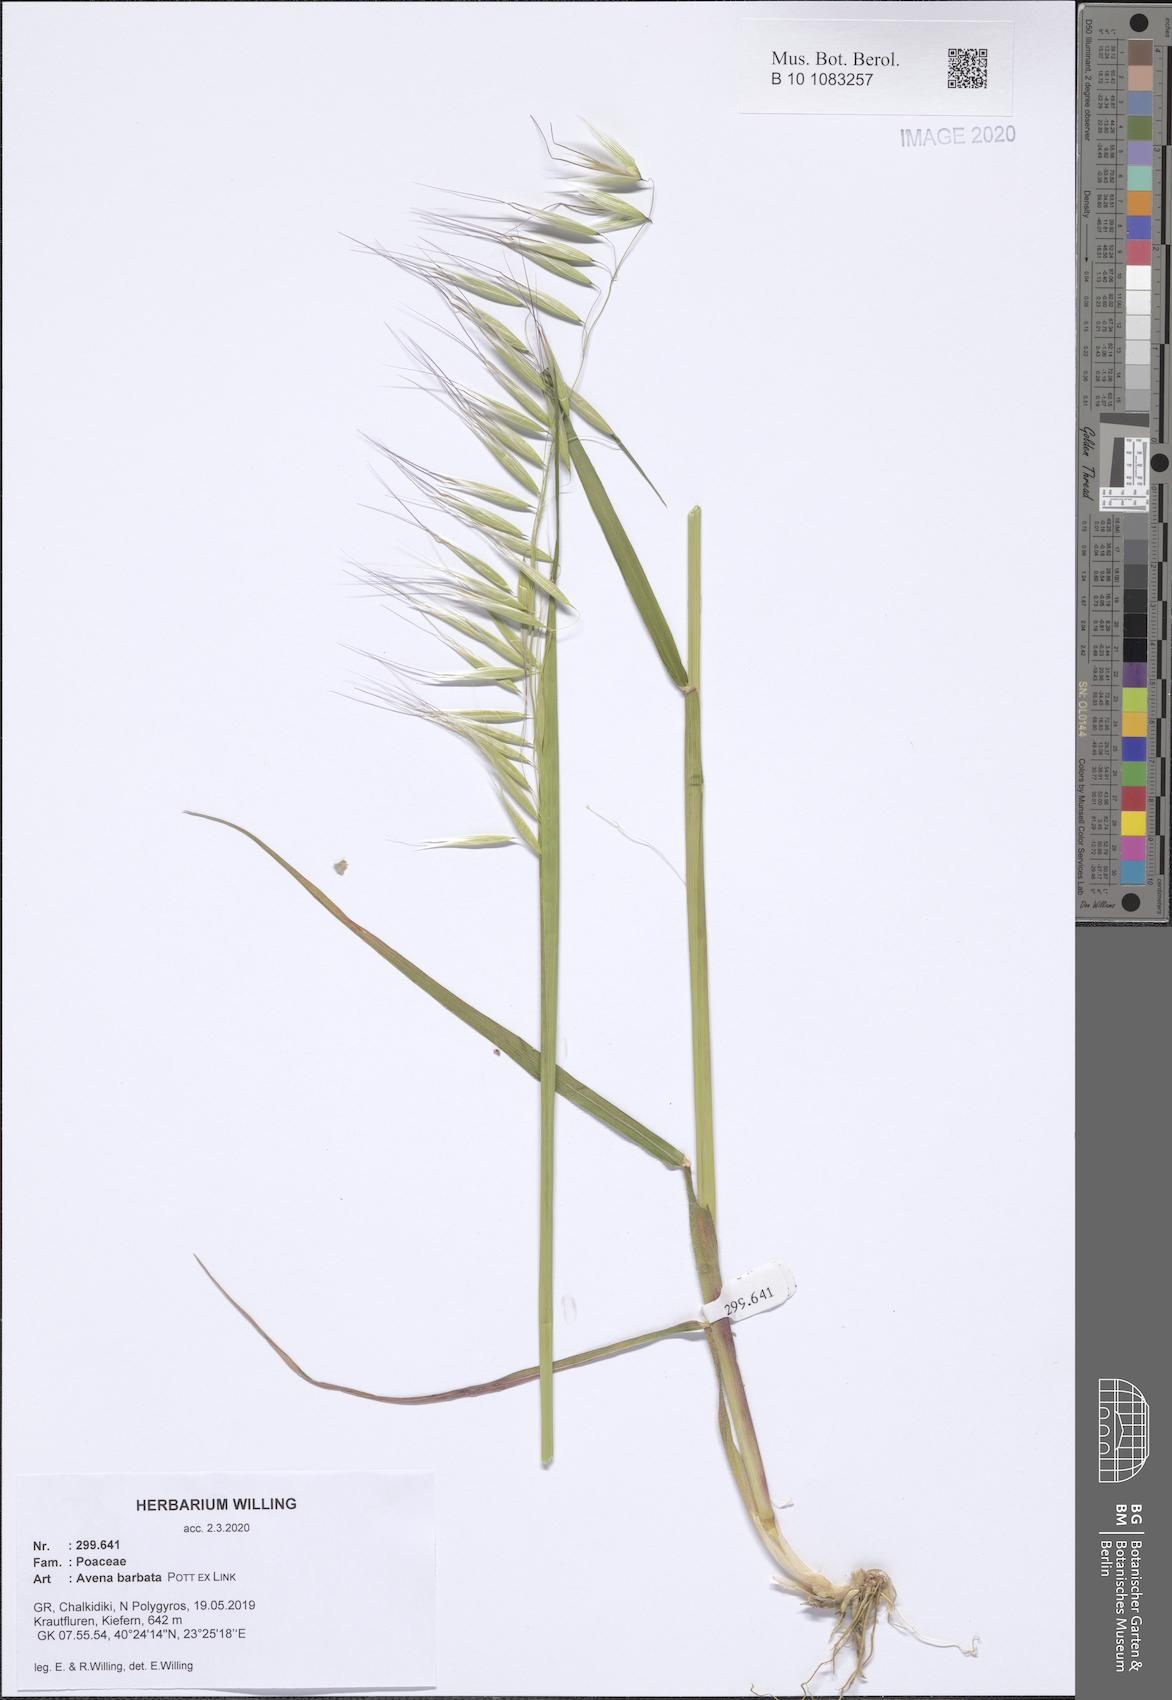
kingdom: Plantae
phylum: Tracheophyta
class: Liliopsida
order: Poales
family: Poaceae
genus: Avena
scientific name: Avena barbata
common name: Slender oat
